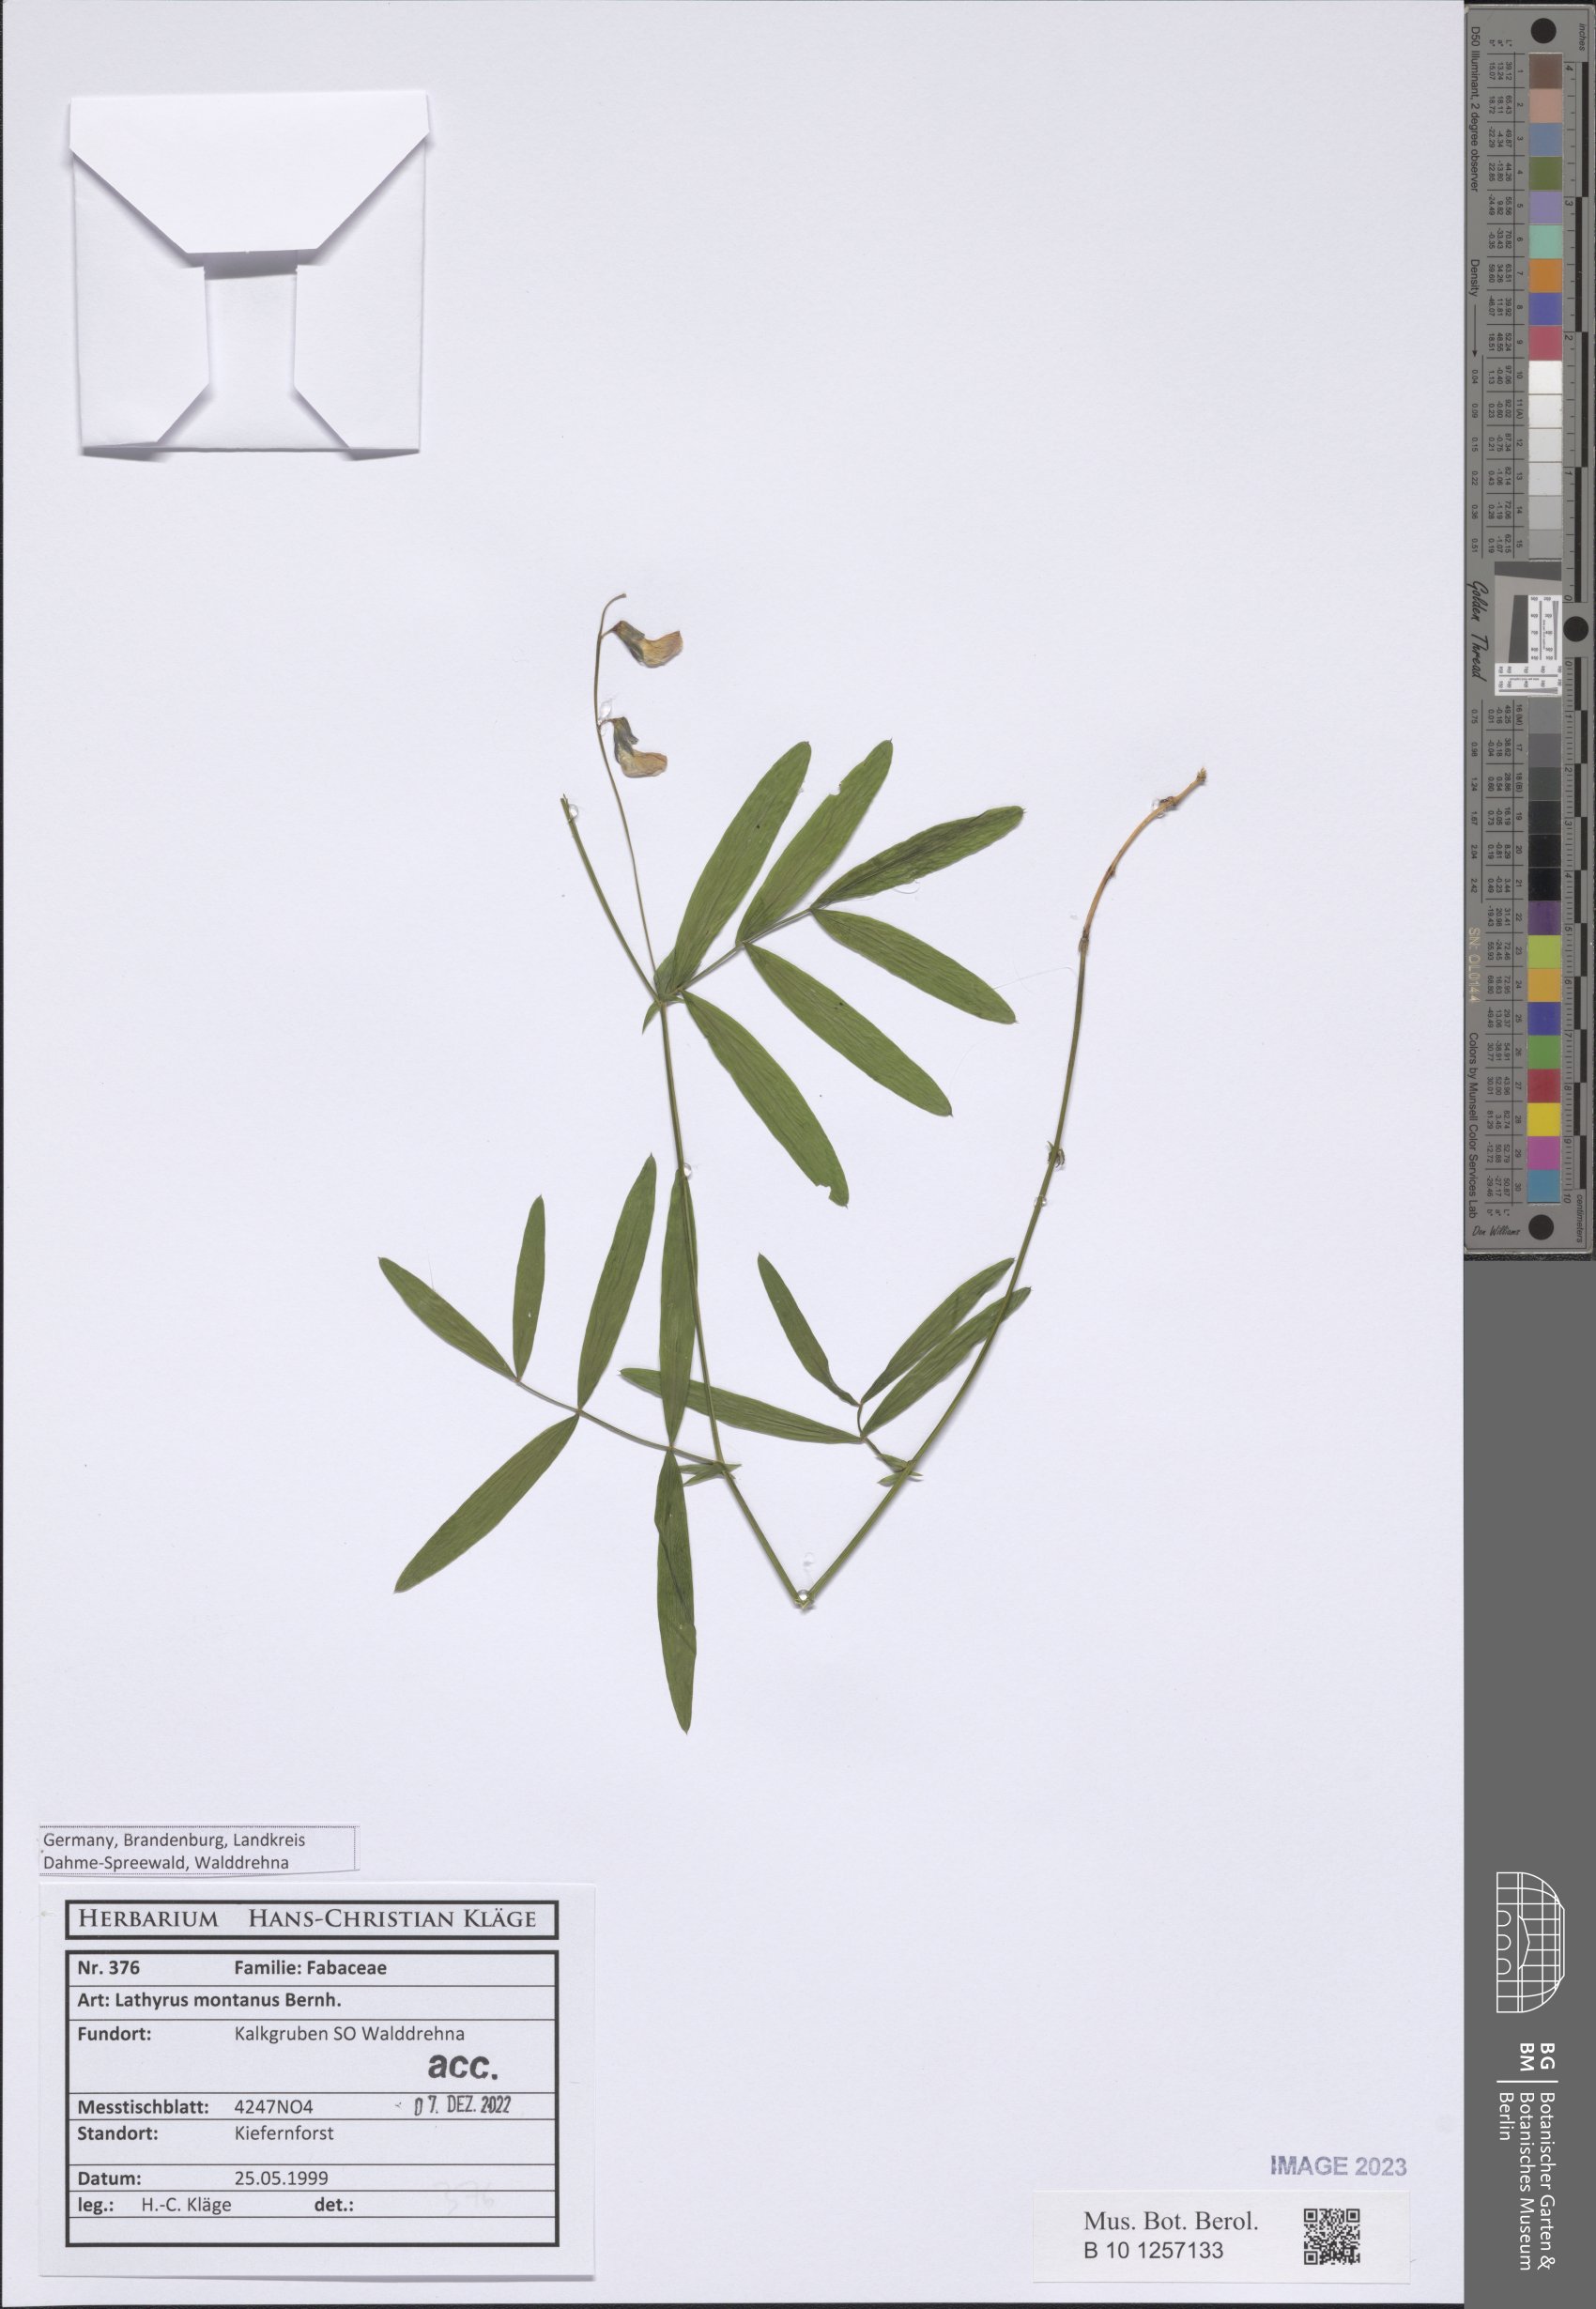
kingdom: Plantae
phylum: Tracheophyta
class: Magnoliopsida
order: Fabales
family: Fabaceae
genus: Lathyrus
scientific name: Lathyrus linifolius
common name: Bitter-vetch
